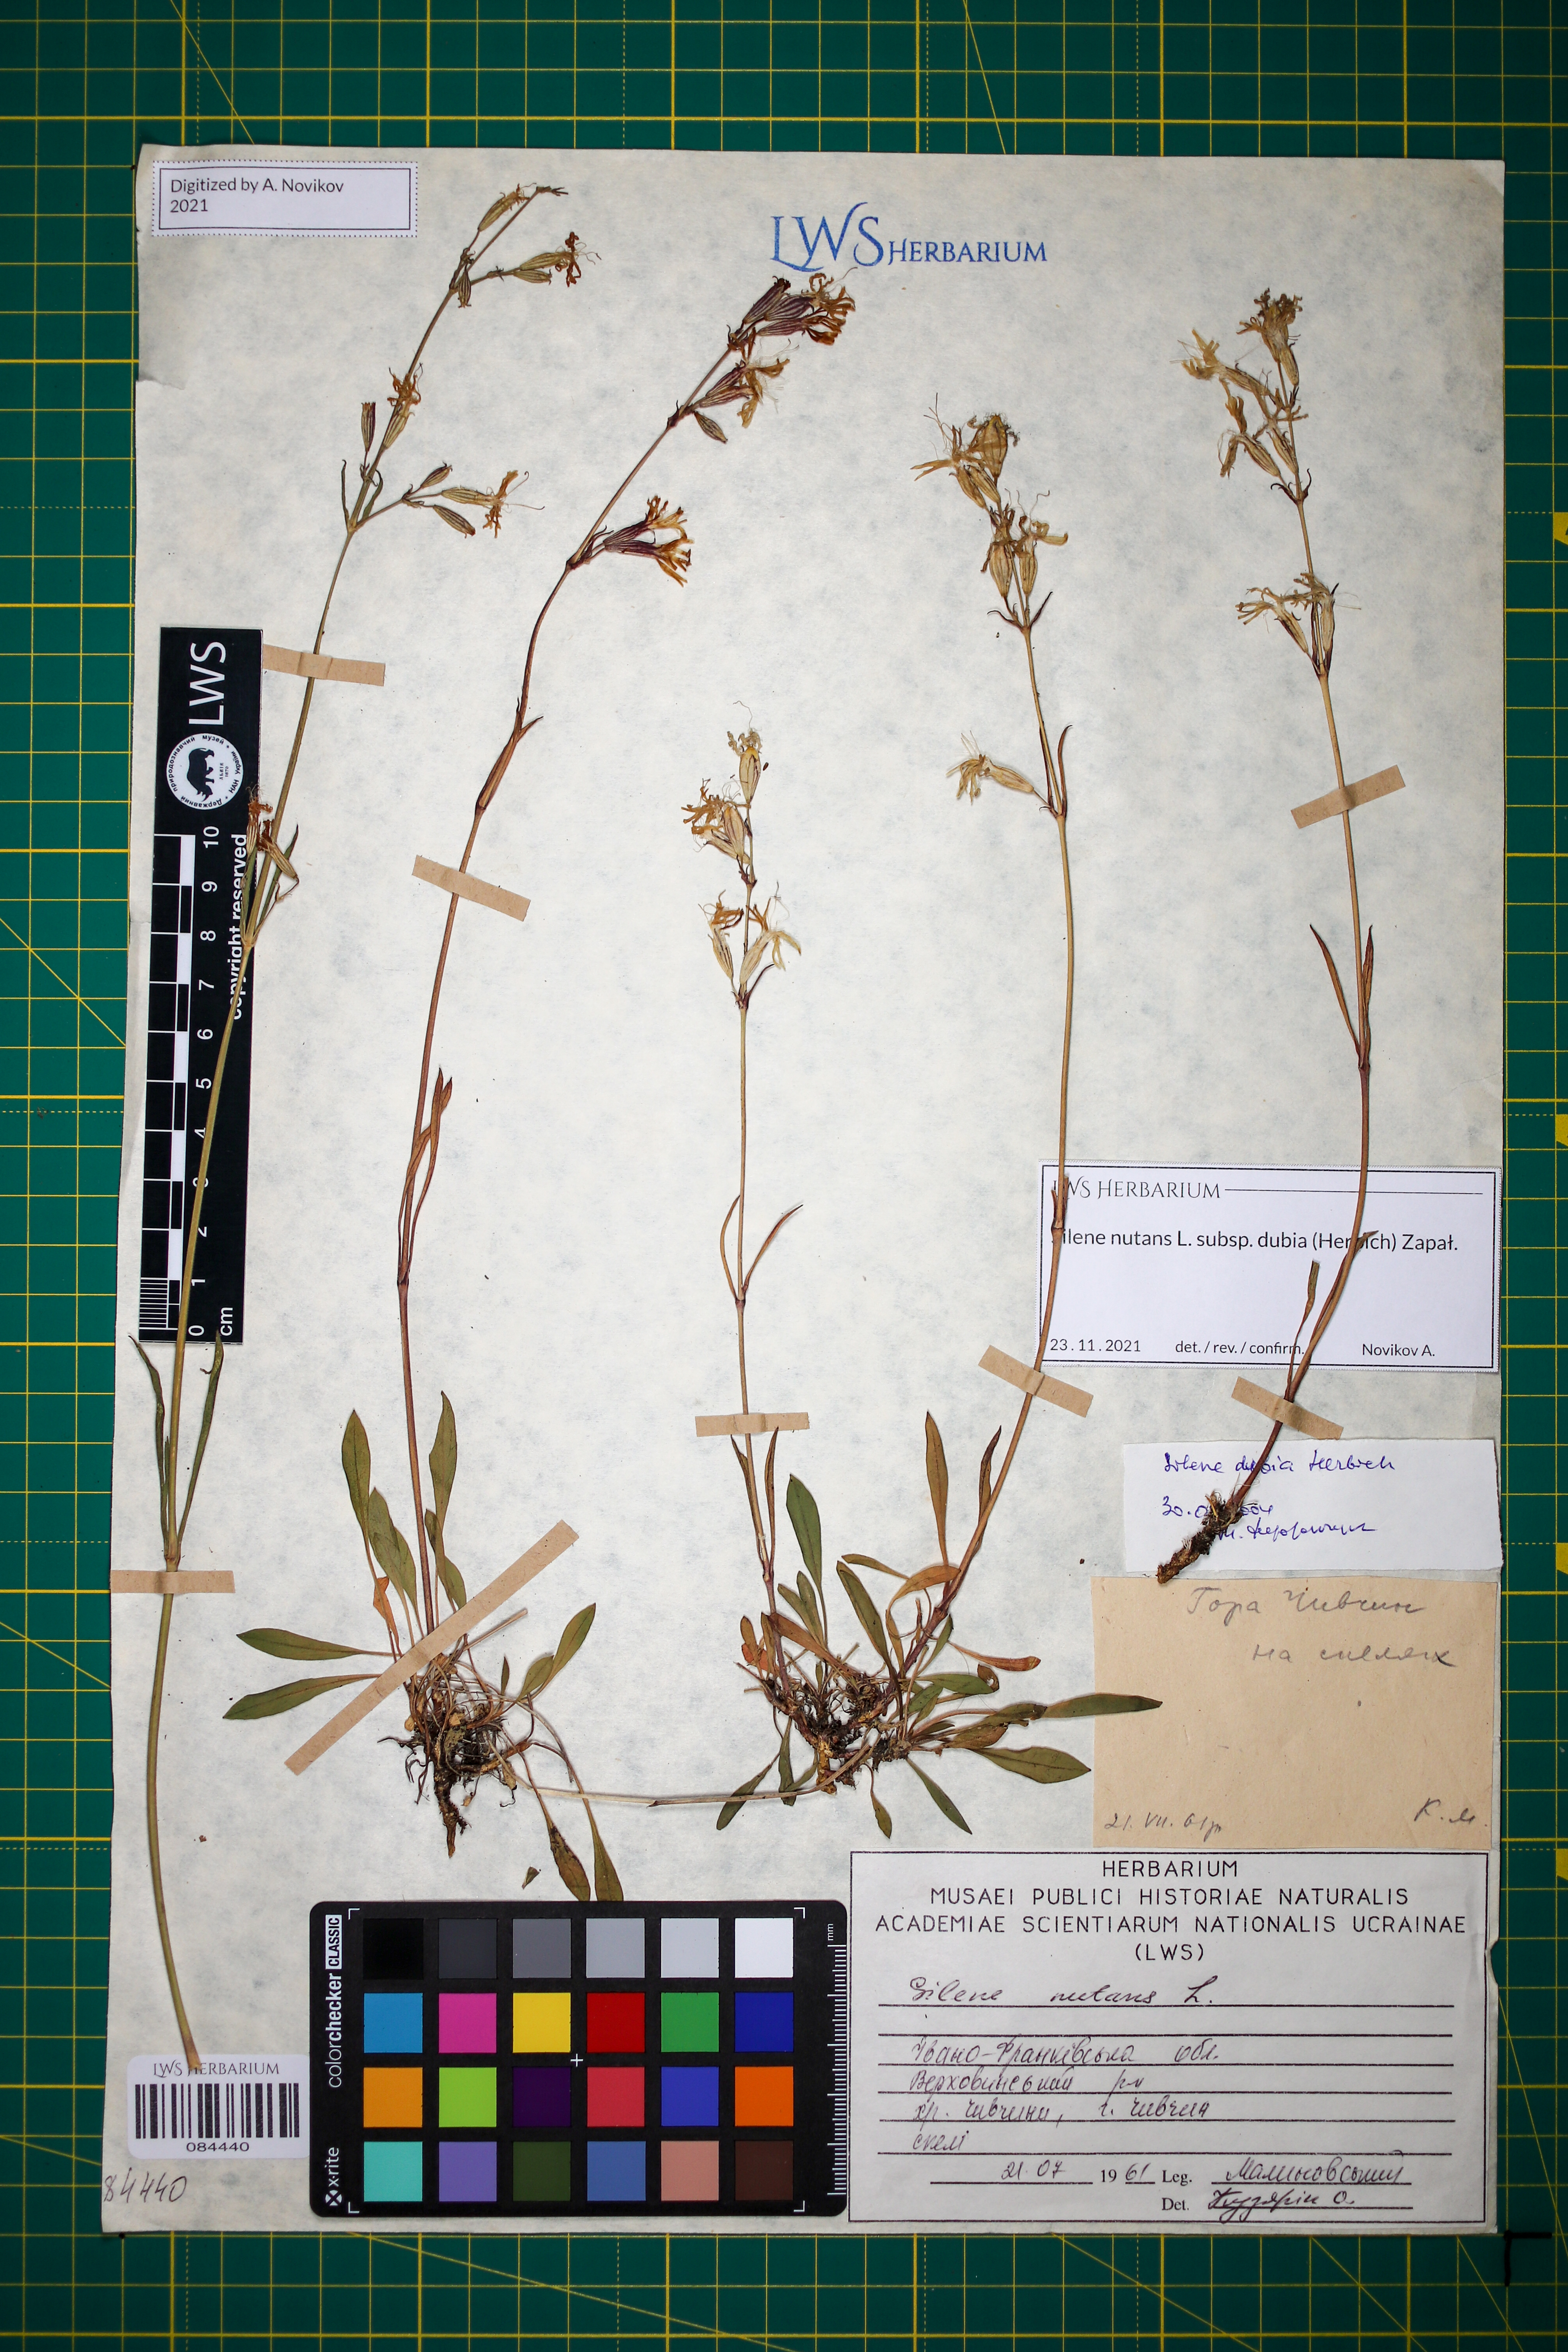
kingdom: Plantae
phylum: Tracheophyta
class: Magnoliopsida
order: Caryophyllales
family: Caryophyllaceae
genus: Silene
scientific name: Silene nutans
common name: Nottingham catchfly
